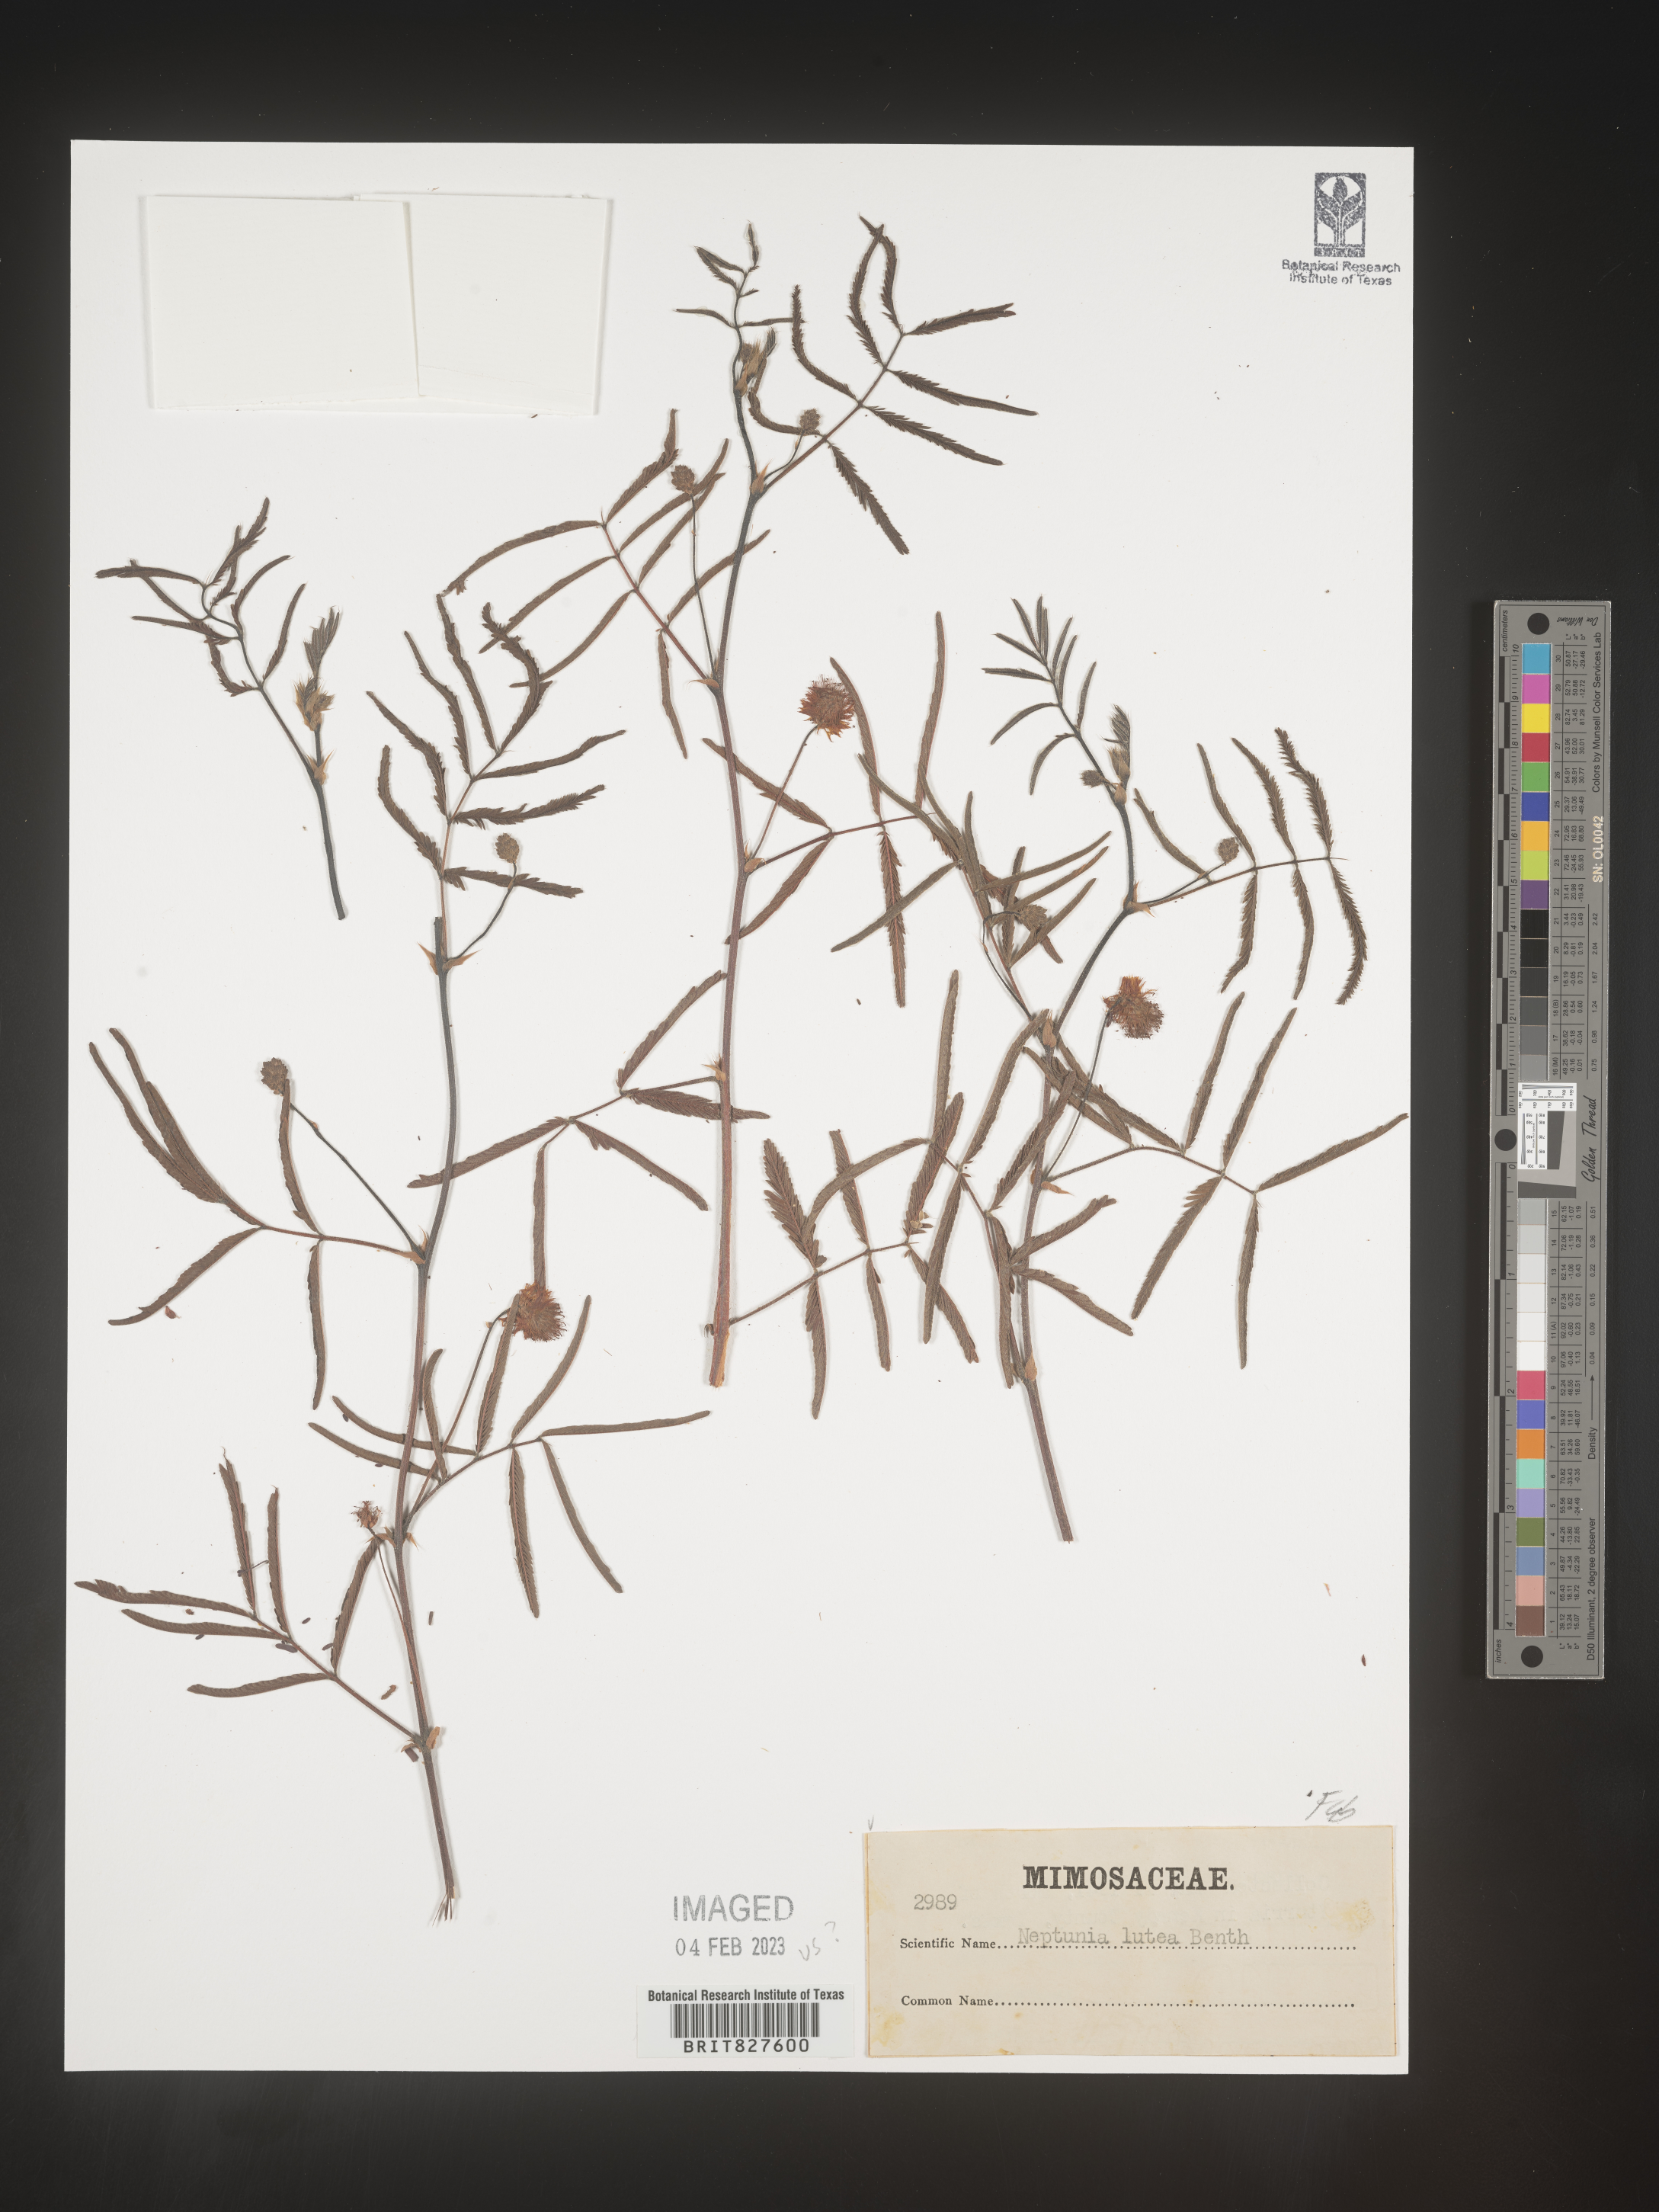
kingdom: Plantae
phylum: Tracheophyta
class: Magnoliopsida
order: Fabales
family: Fabaceae
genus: Neptunia
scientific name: Neptunia lutea
